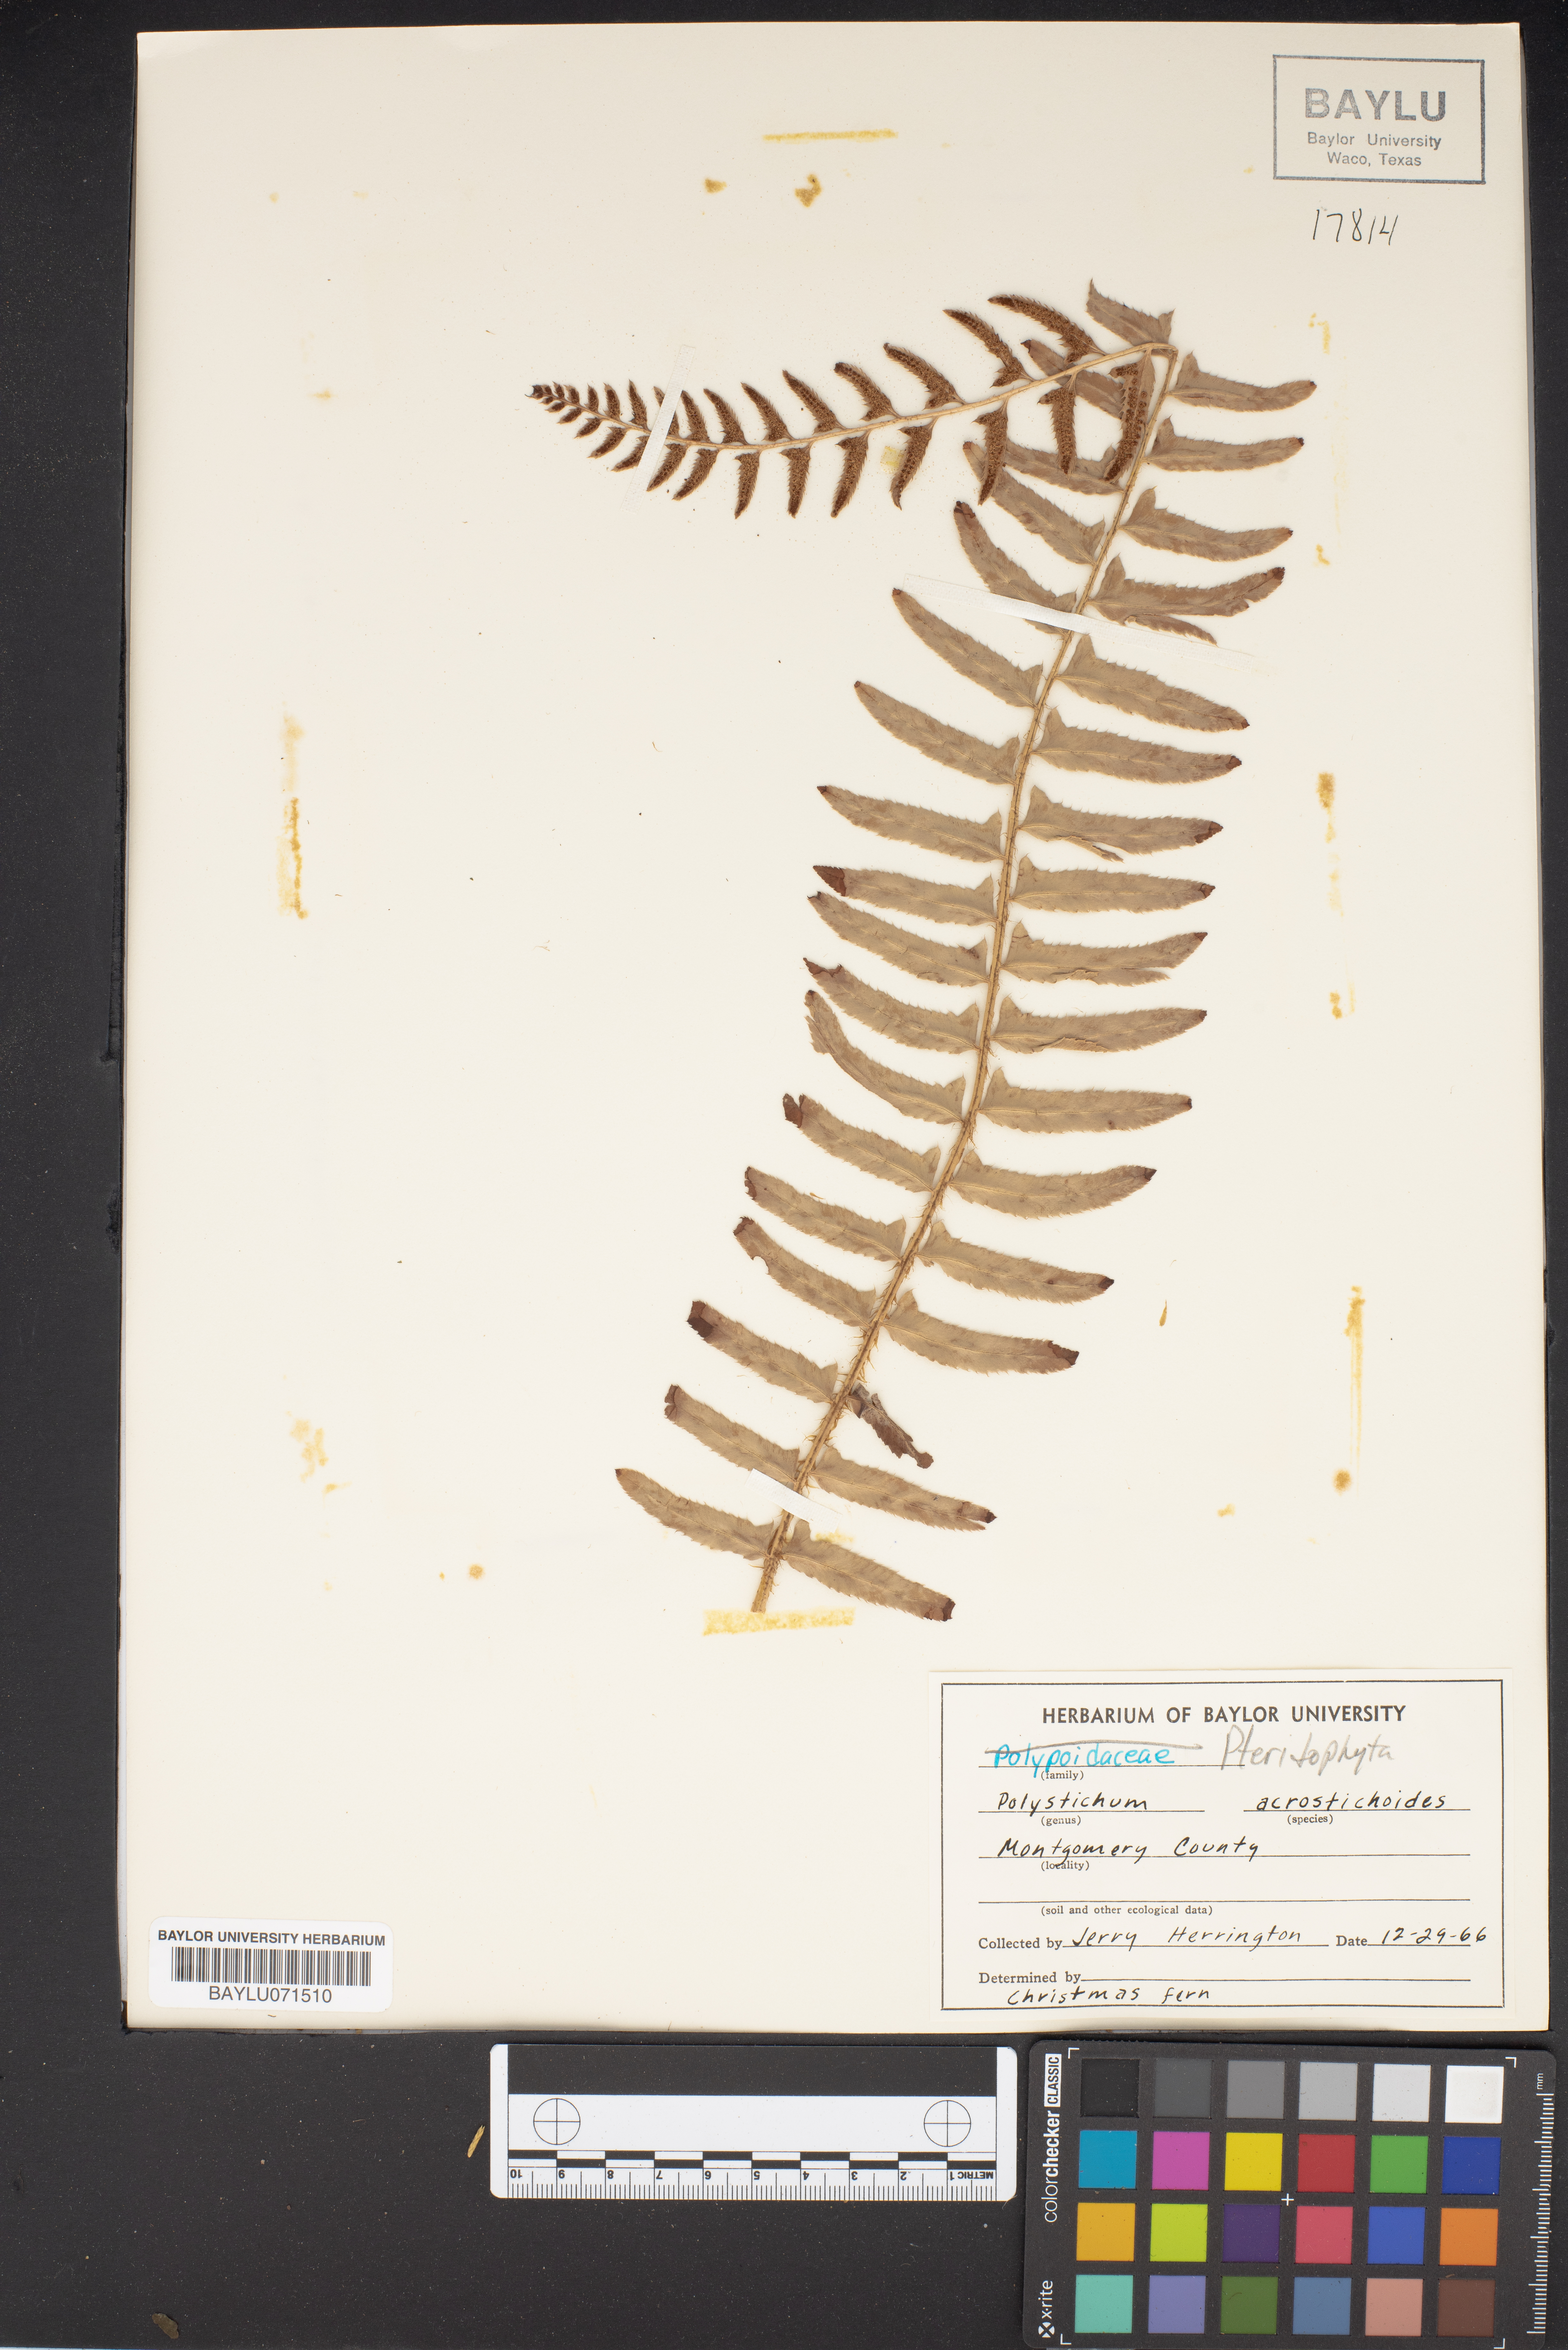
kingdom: Plantae
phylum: Tracheophyta
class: Polypodiopsida
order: Polypodiales
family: Dryopteridaceae
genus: Polystichum
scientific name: Polystichum acrostichoides
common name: Christmas fern
